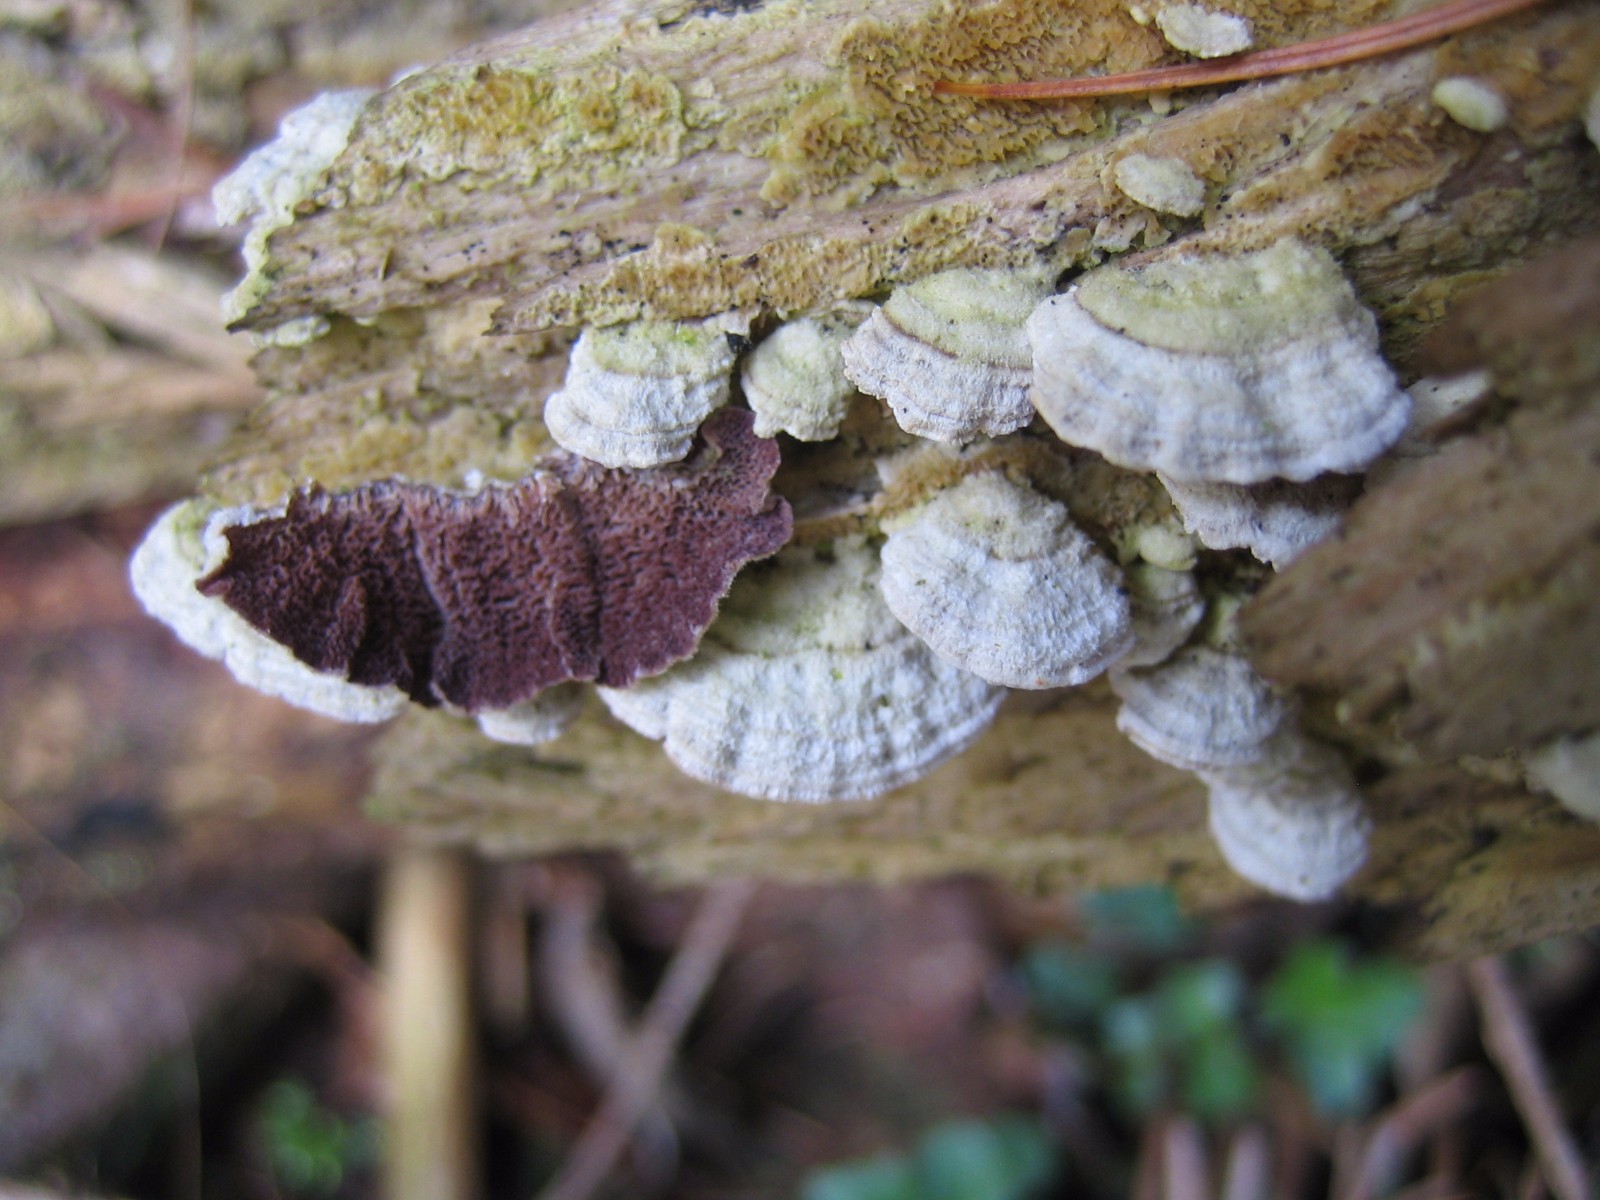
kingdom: Fungi
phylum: Basidiomycota
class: Agaricomycetes
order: Hymenochaetales
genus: Trichaptum
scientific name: Trichaptum abietinum
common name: almindelig violporesvamp
